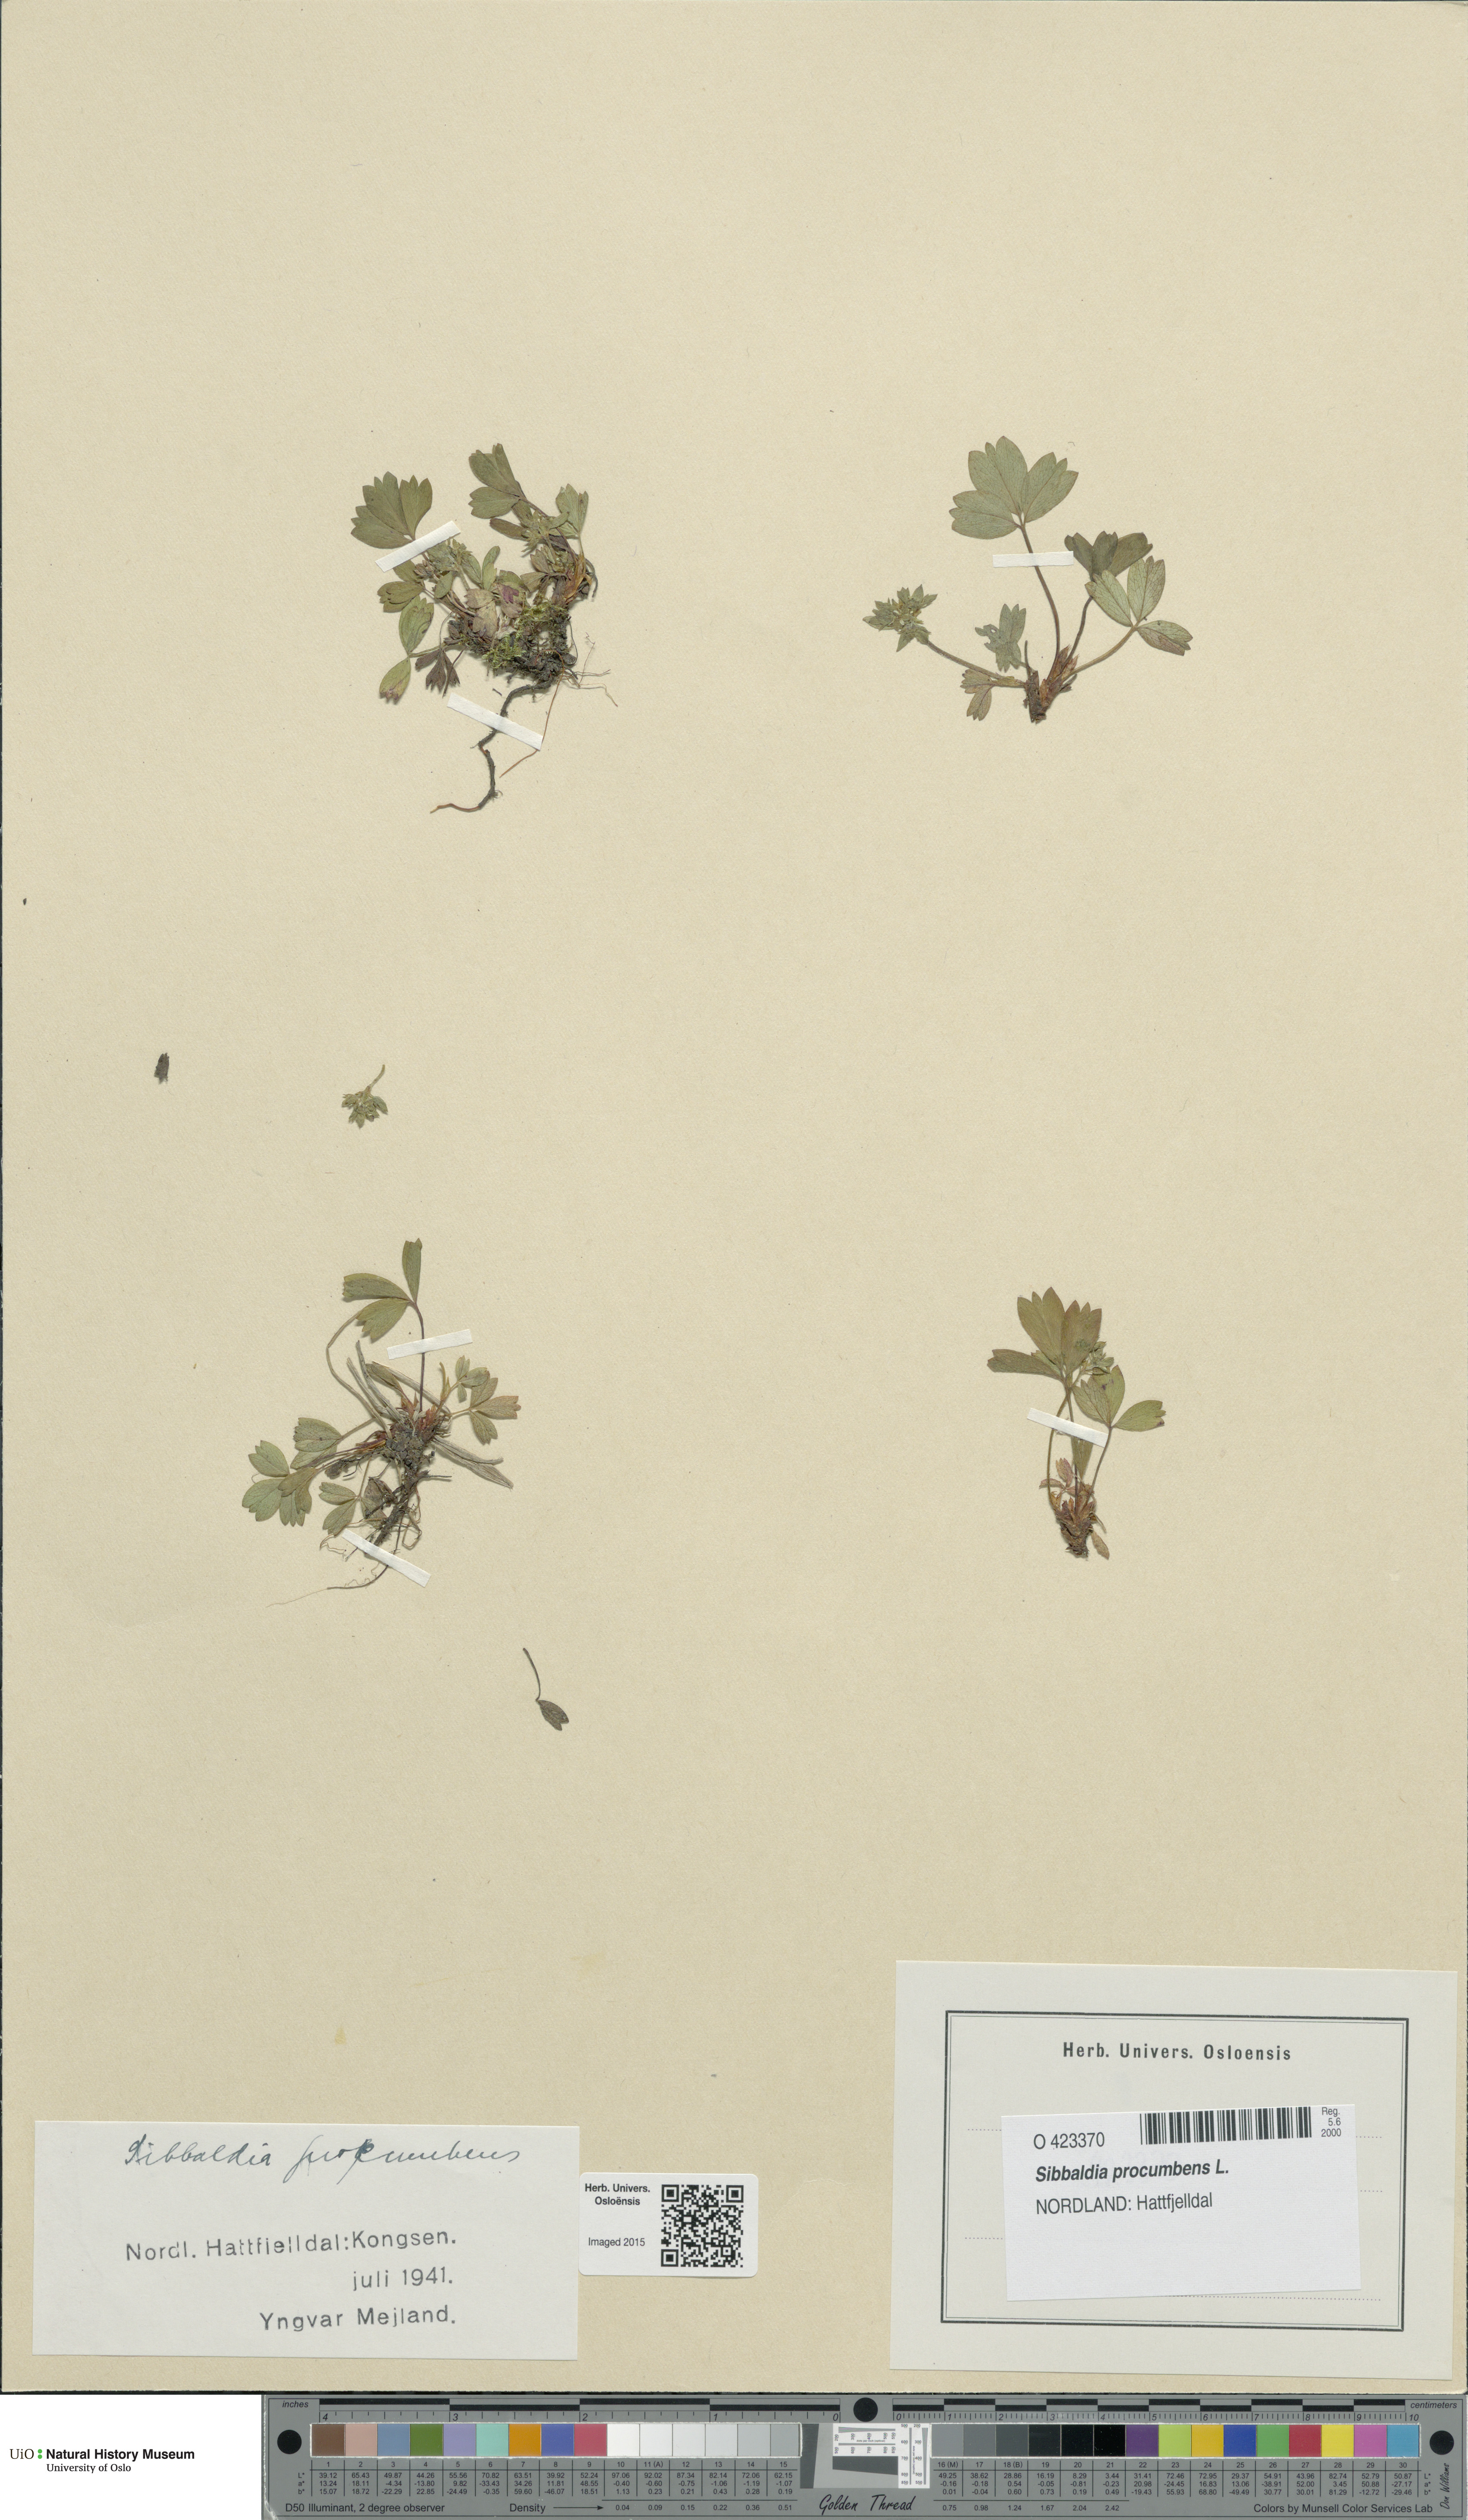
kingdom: Plantae
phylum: Tracheophyta
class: Magnoliopsida
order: Rosales
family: Rosaceae
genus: Sibbaldia
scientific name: Sibbaldia procumbens
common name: Creeping sibbaldia
